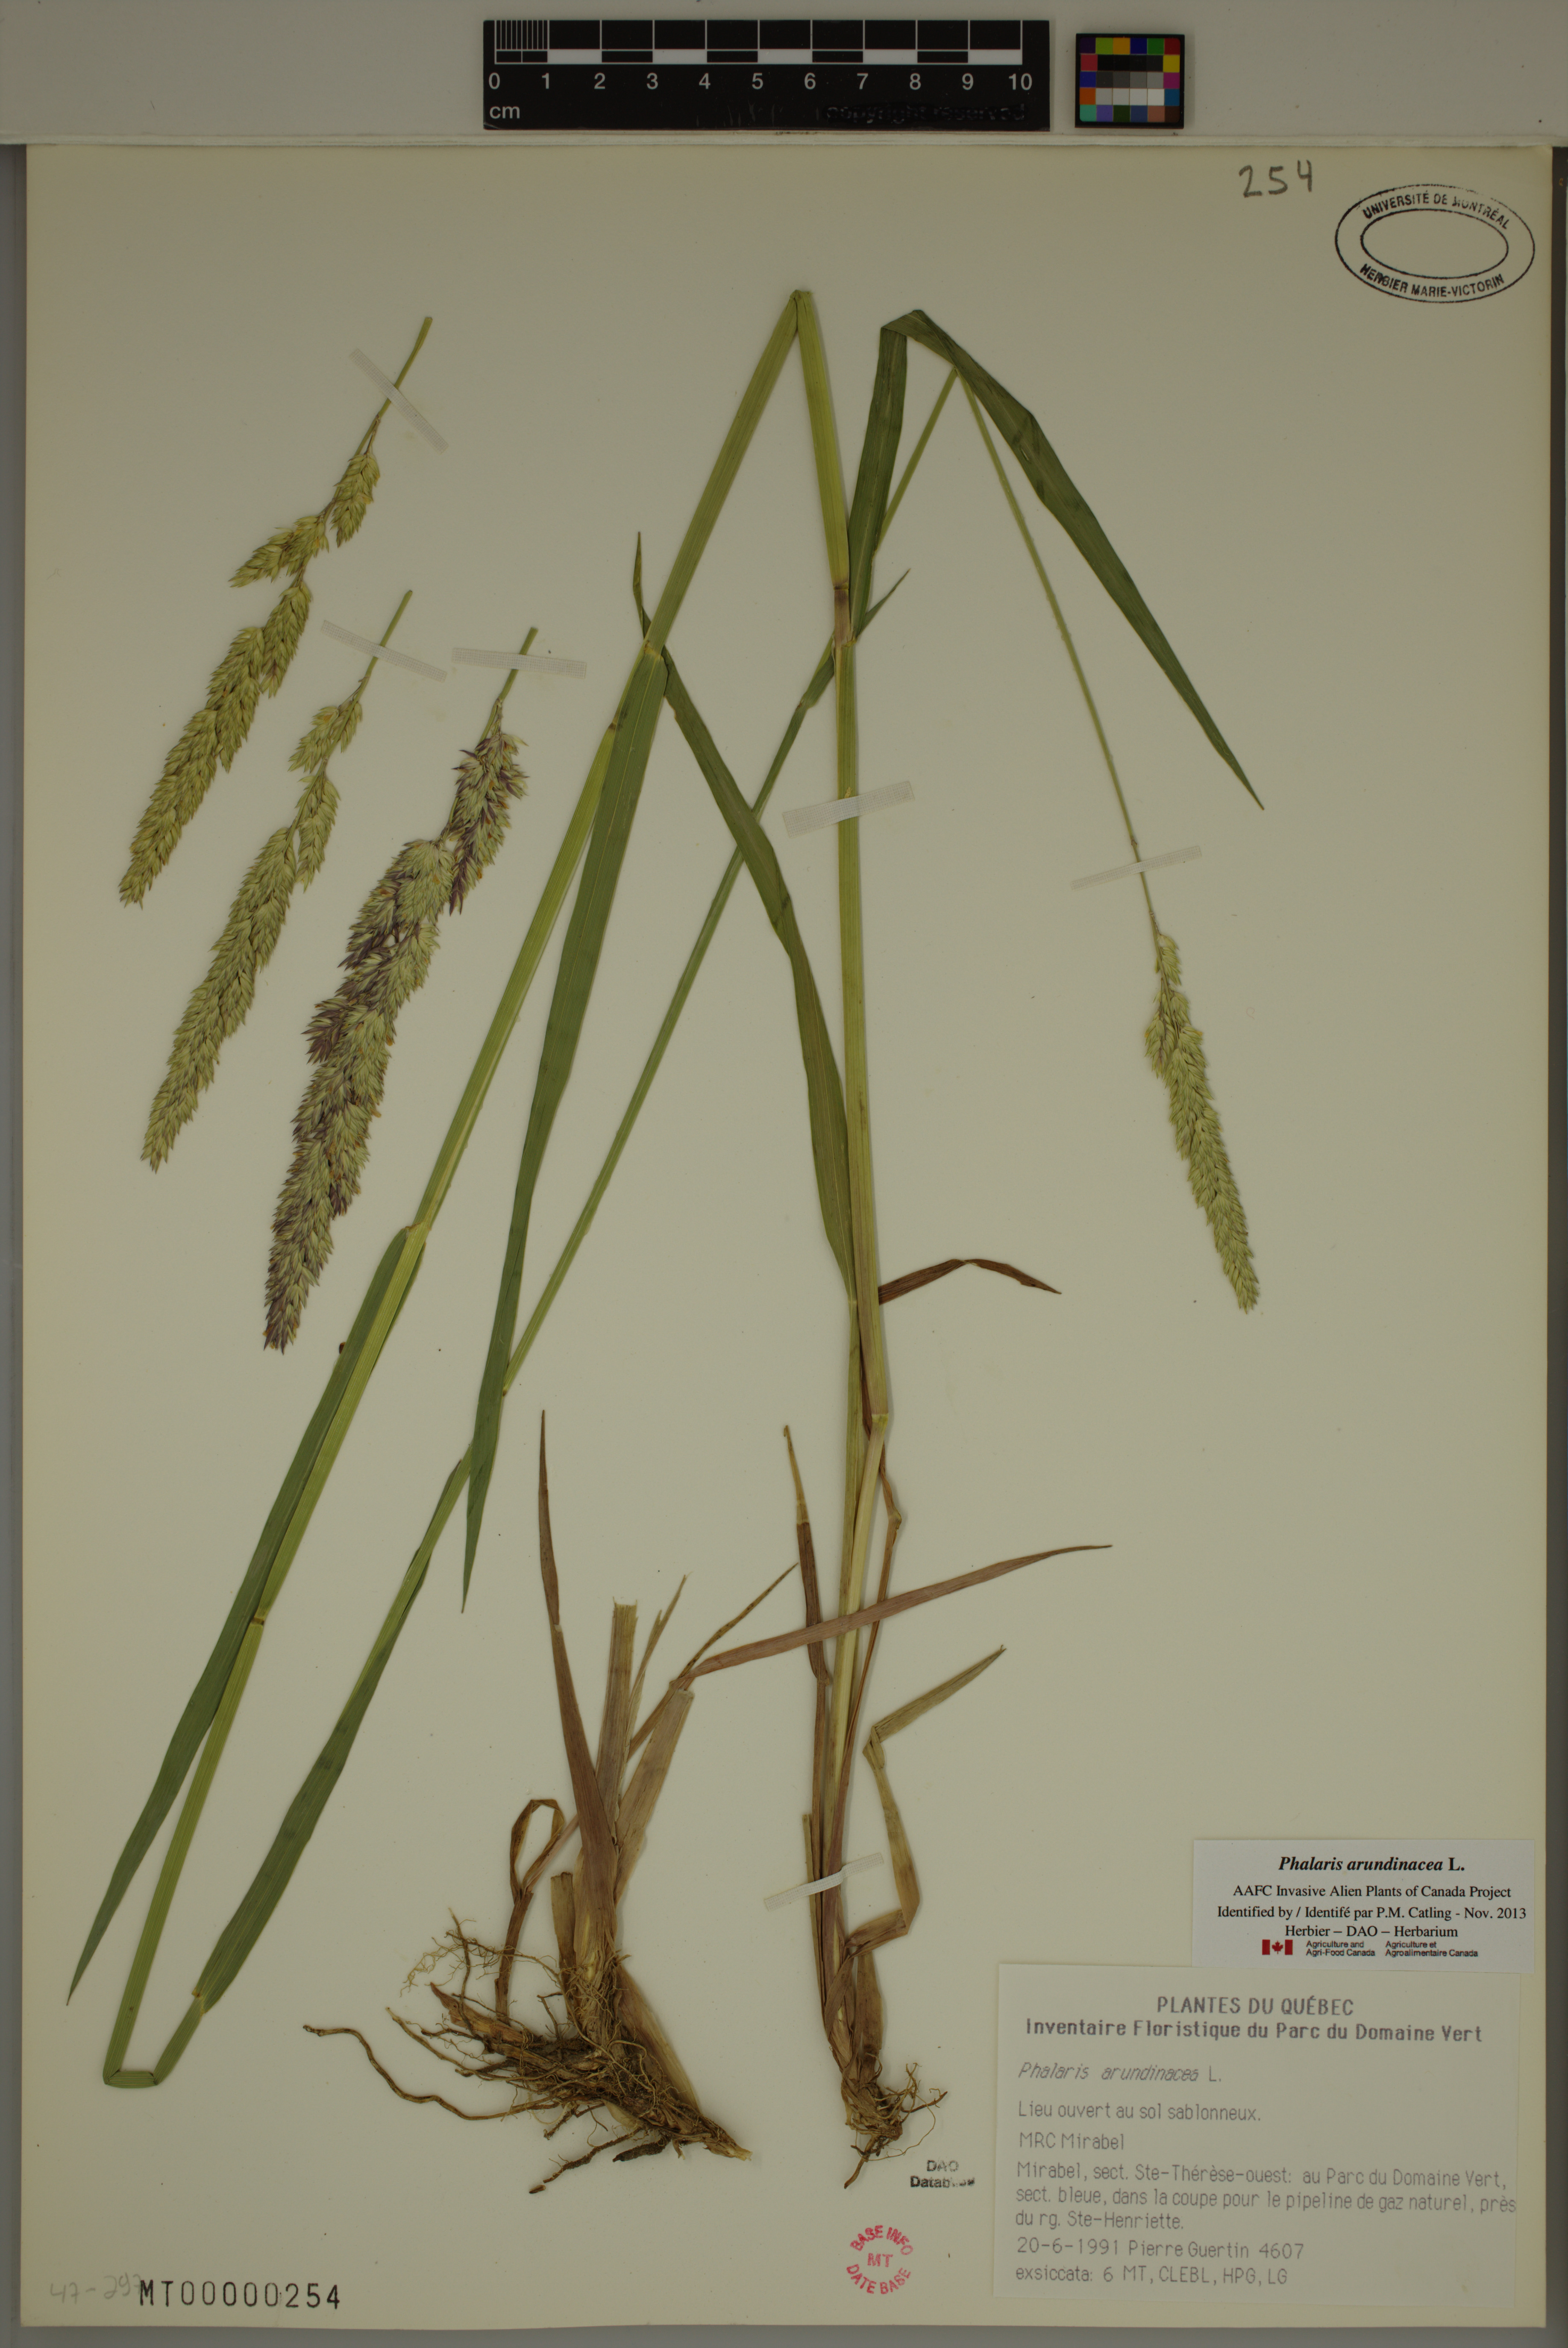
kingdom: Plantae
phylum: Tracheophyta
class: Liliopsida
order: Poales
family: Poaceae
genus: Phalaris
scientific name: Phalaris arundinacea
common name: Reed canary-grass
